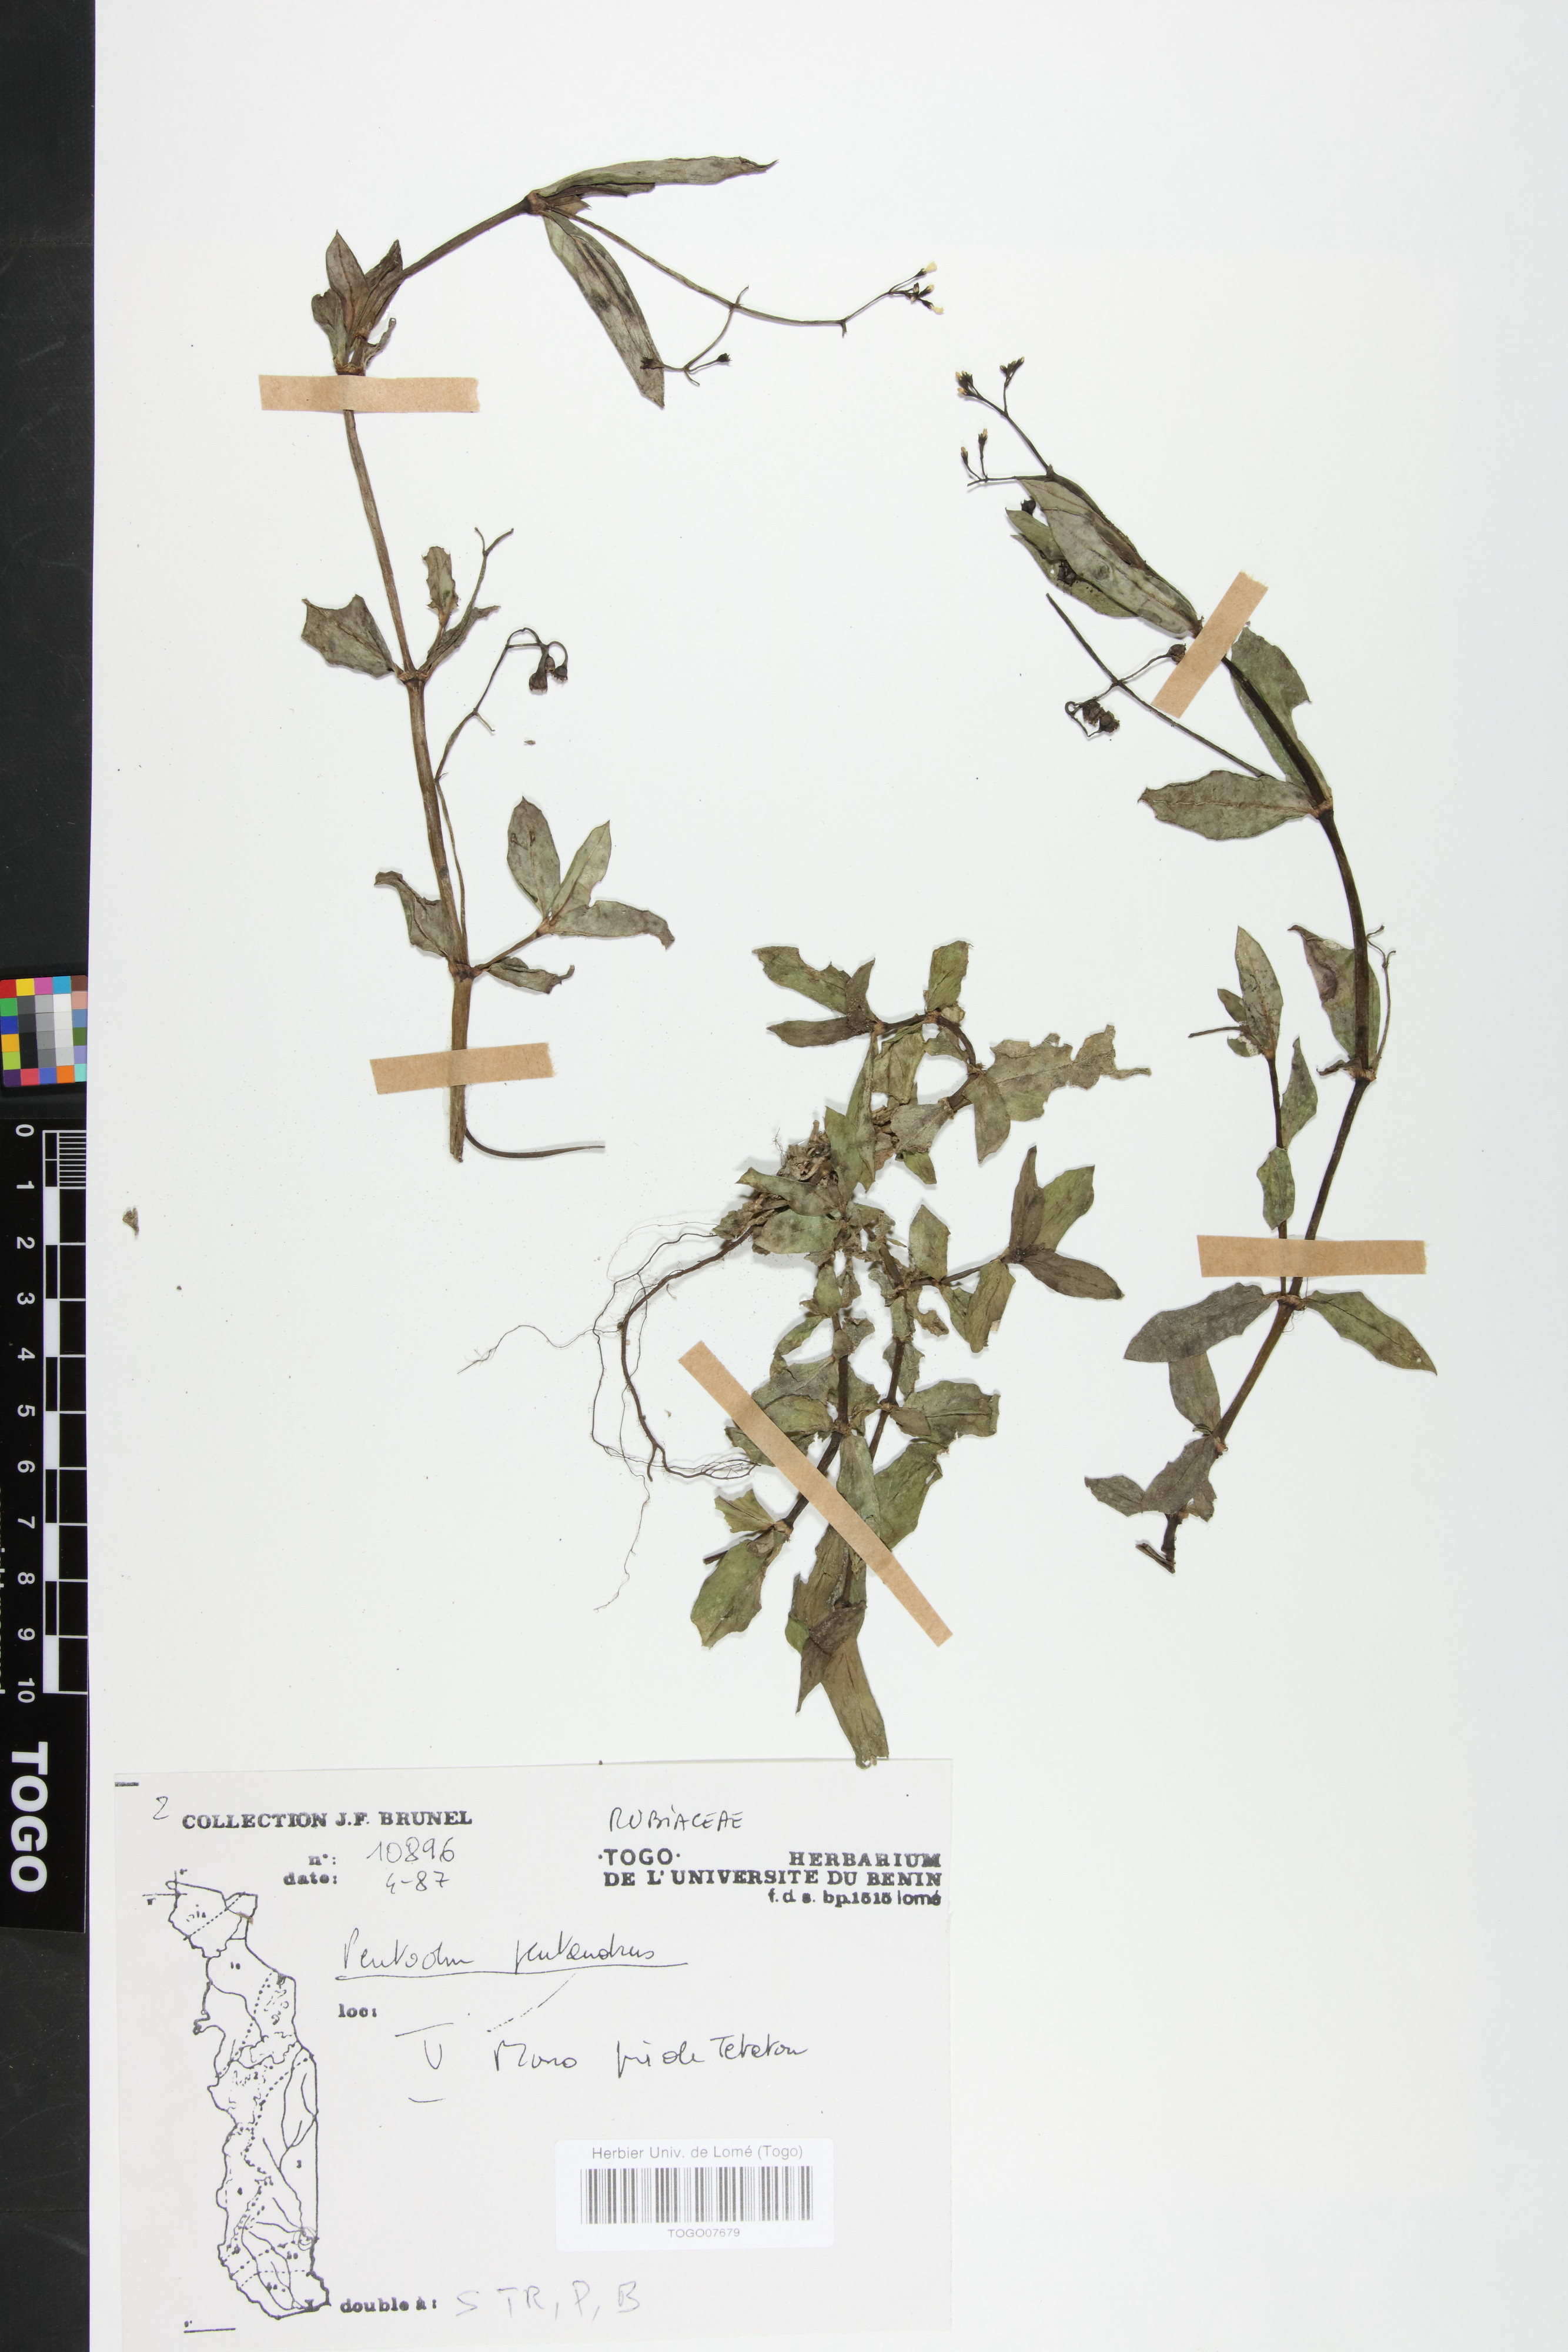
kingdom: Plantae
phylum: Tracheophyta
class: Magnoliopsida
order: Gentianales
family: Rubiaceae
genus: Pentodon
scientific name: Pentodon pentandrus
